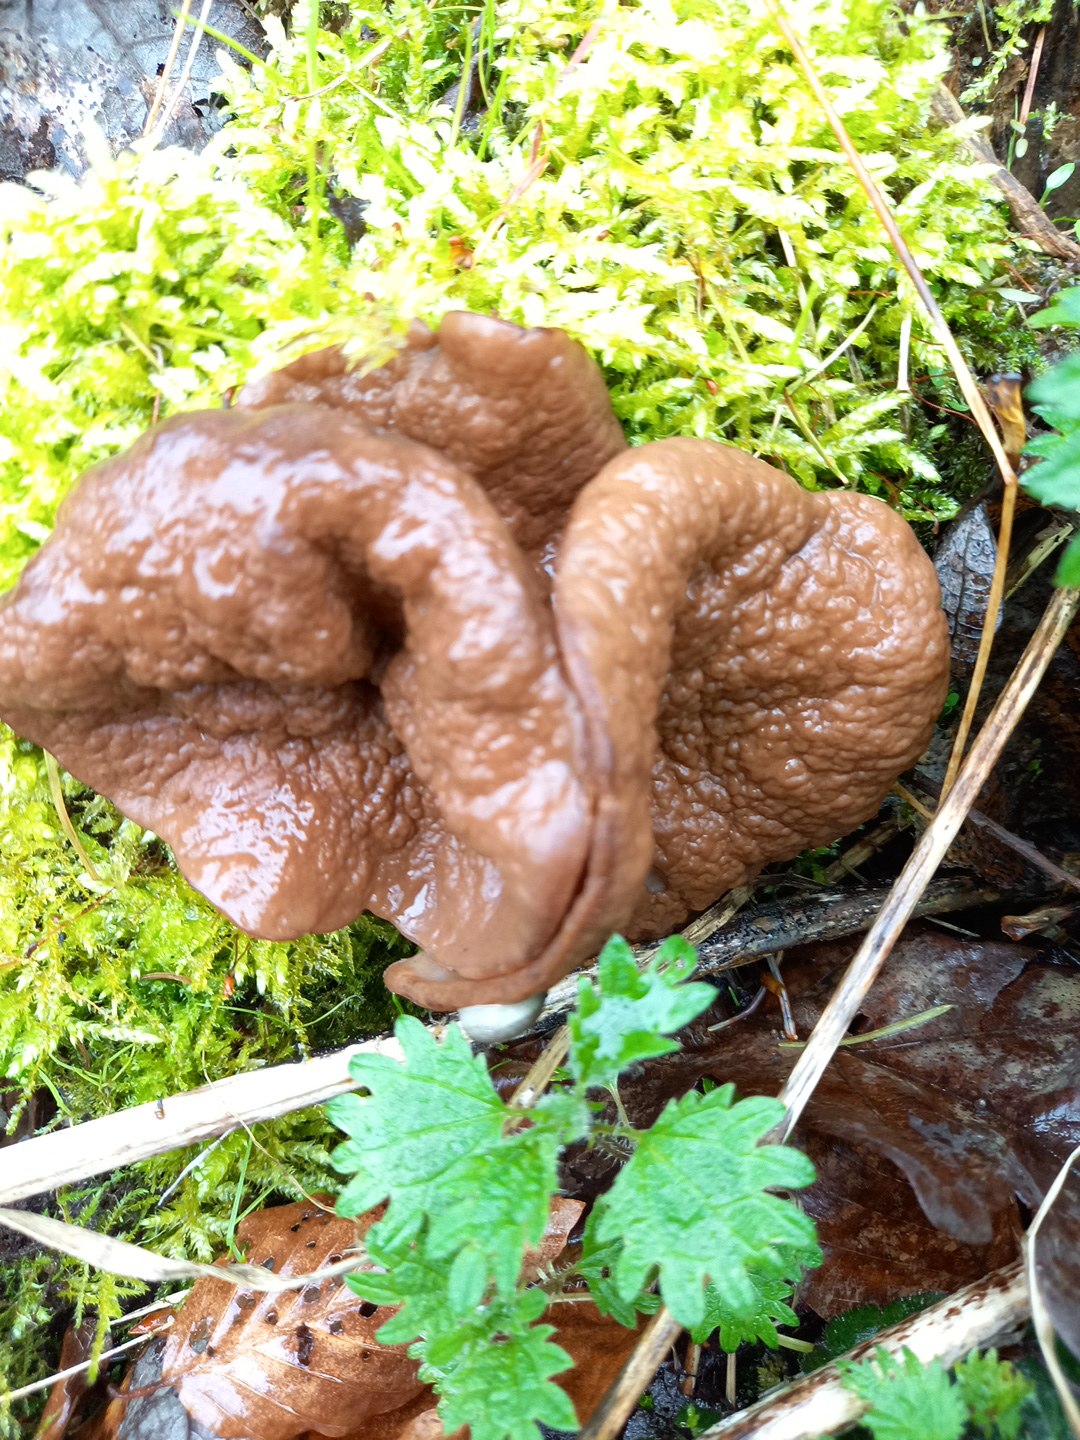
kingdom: Fungi
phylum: Ascomycota
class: Pezizomycetes
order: Pezizales
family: Discinaceae
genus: Discina
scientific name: Discina ancilis
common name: udbredt stenmorkel
